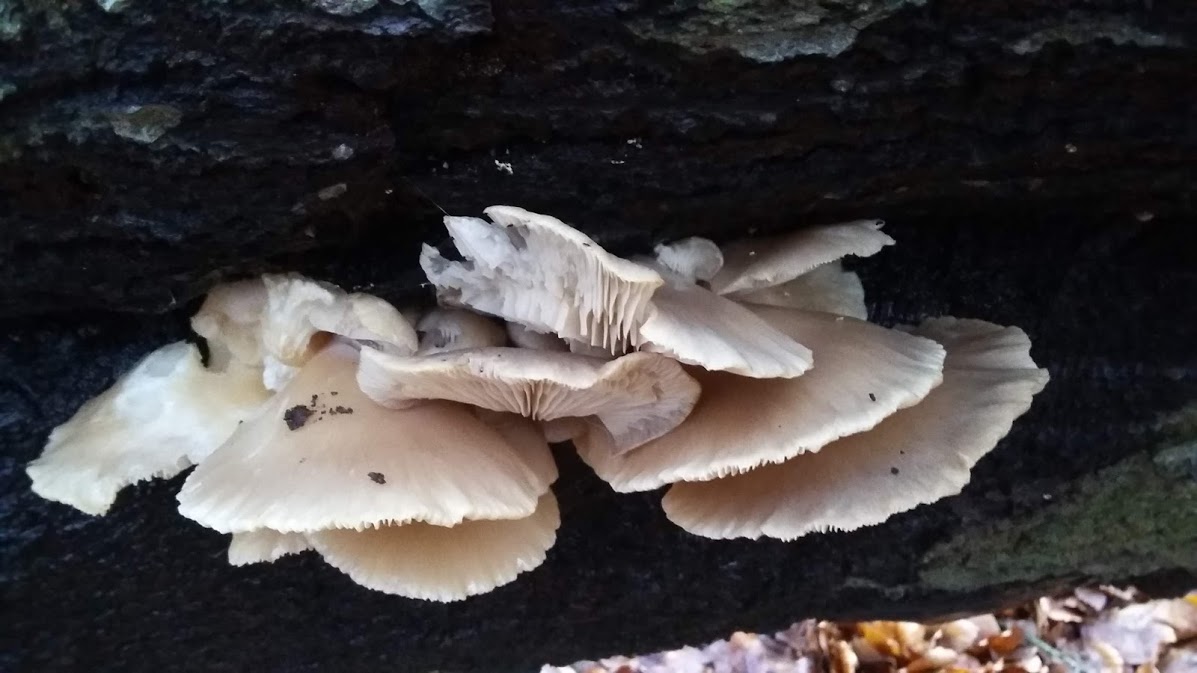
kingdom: Fungi
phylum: Basidiomycota
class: Agaricomycetes
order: Agaricales
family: Pleurotaceae
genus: Pleurotus
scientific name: Pleurotus
